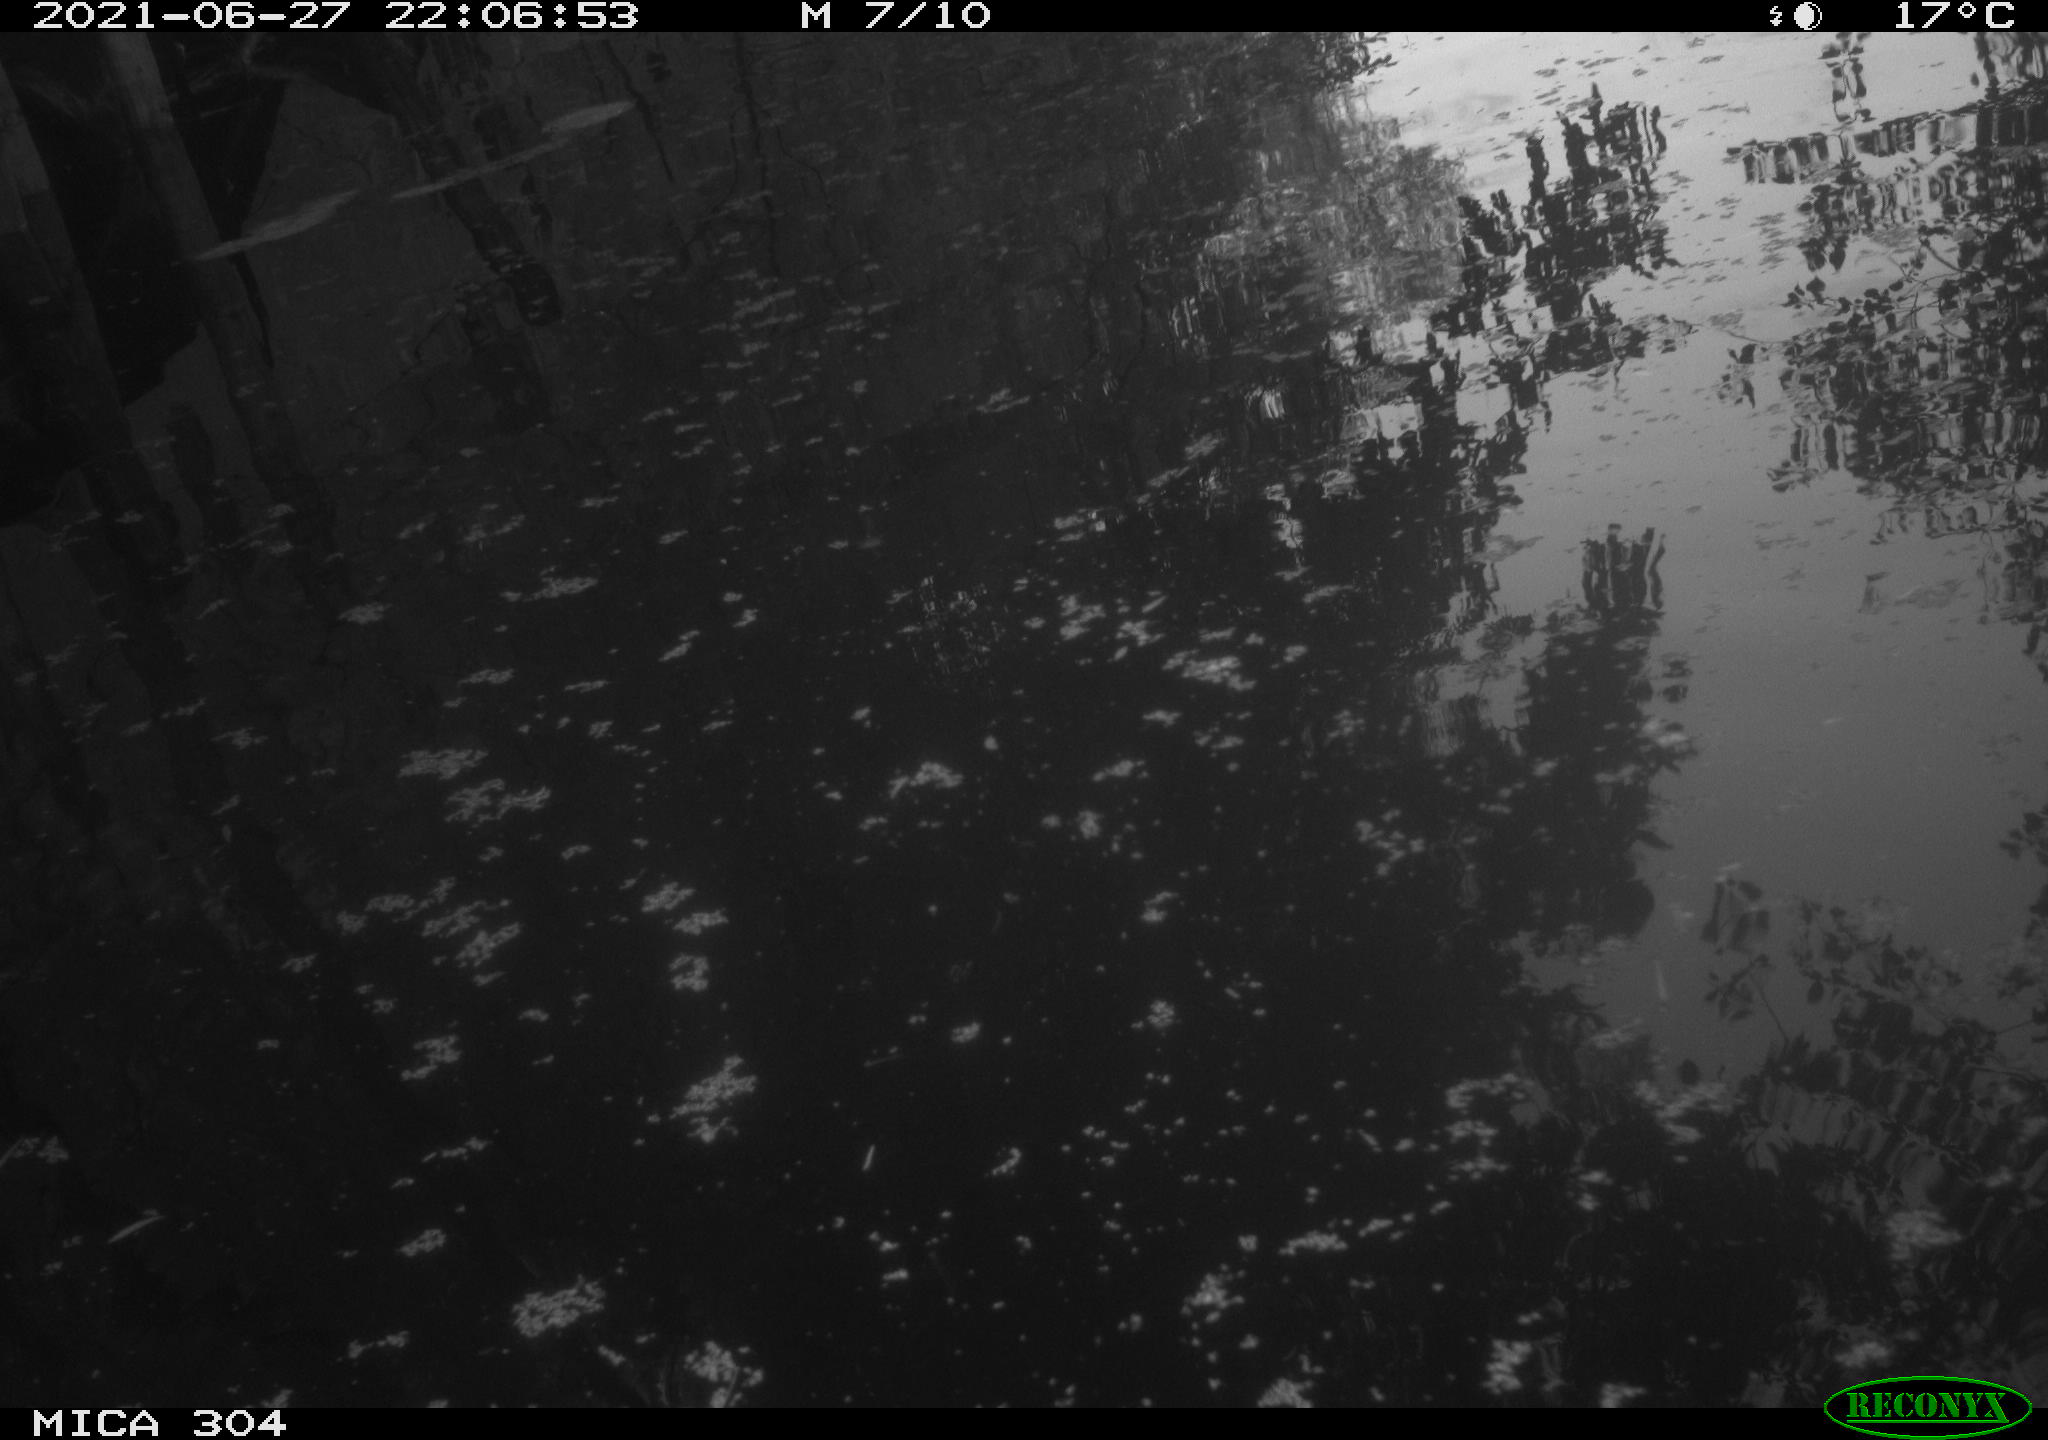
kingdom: Animalia
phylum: Chordata
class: Aves
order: Anseriformes
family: Anatidae
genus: Anas
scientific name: Anas platyrhynchos
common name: Mallard
